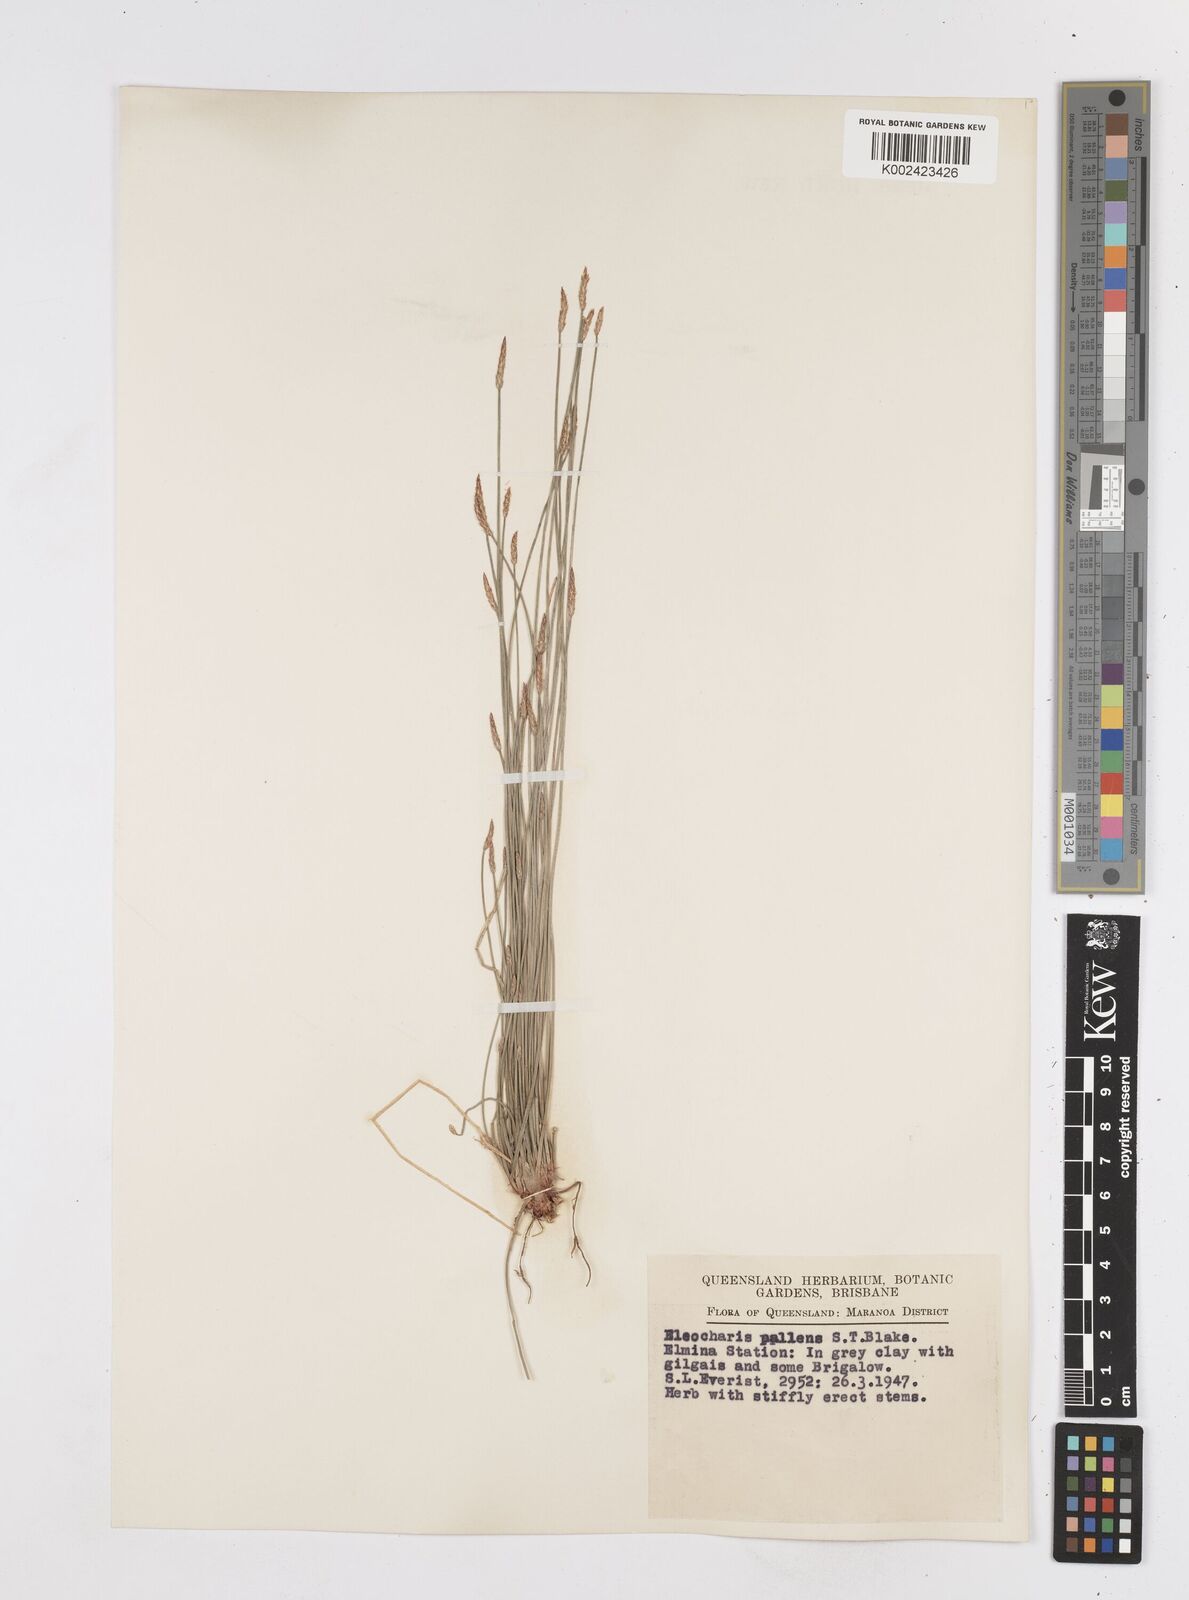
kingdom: Plantae
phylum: Tracheophyta
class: Liliopsida
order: Poales
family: Cyperaceae
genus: Eleocharis
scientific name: Eleocharis acuta
